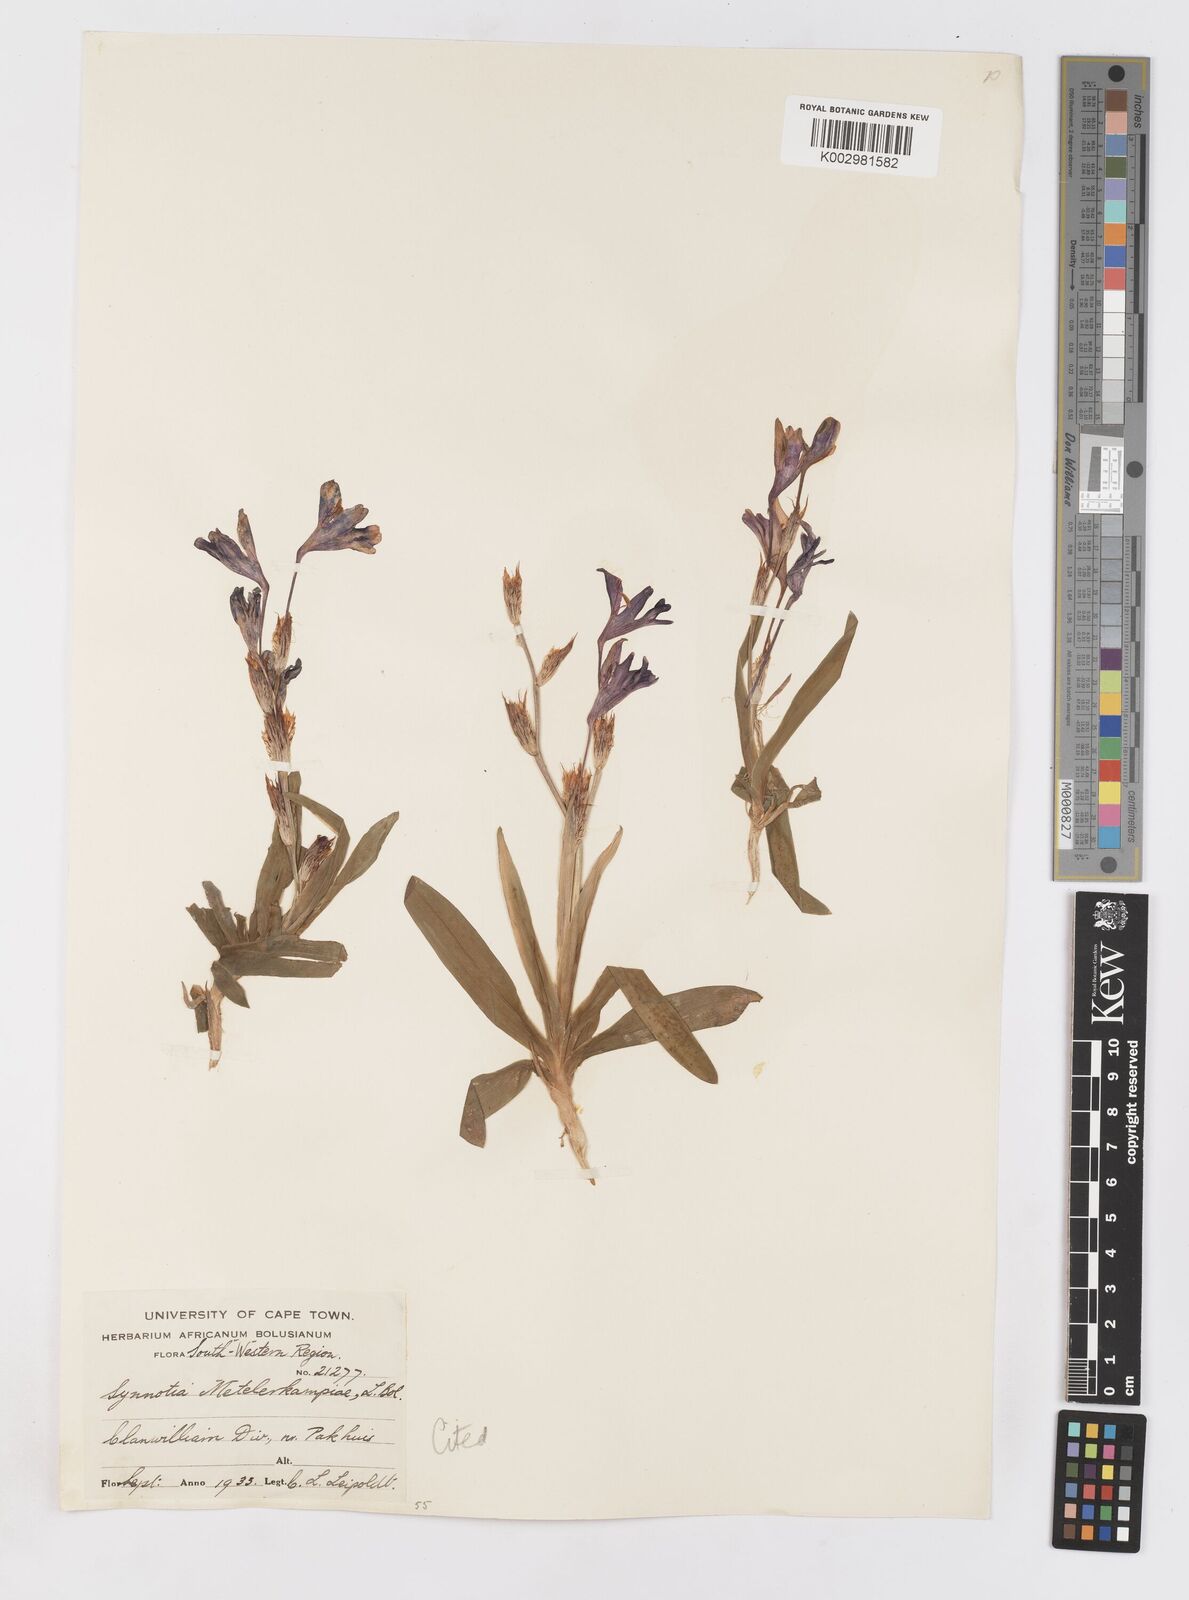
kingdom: Plantae
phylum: Tracheophyta
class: Liliopsida
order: Asparagales
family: Iridaceae
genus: Sparaxis
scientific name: Sparaxis metelerkampiae
